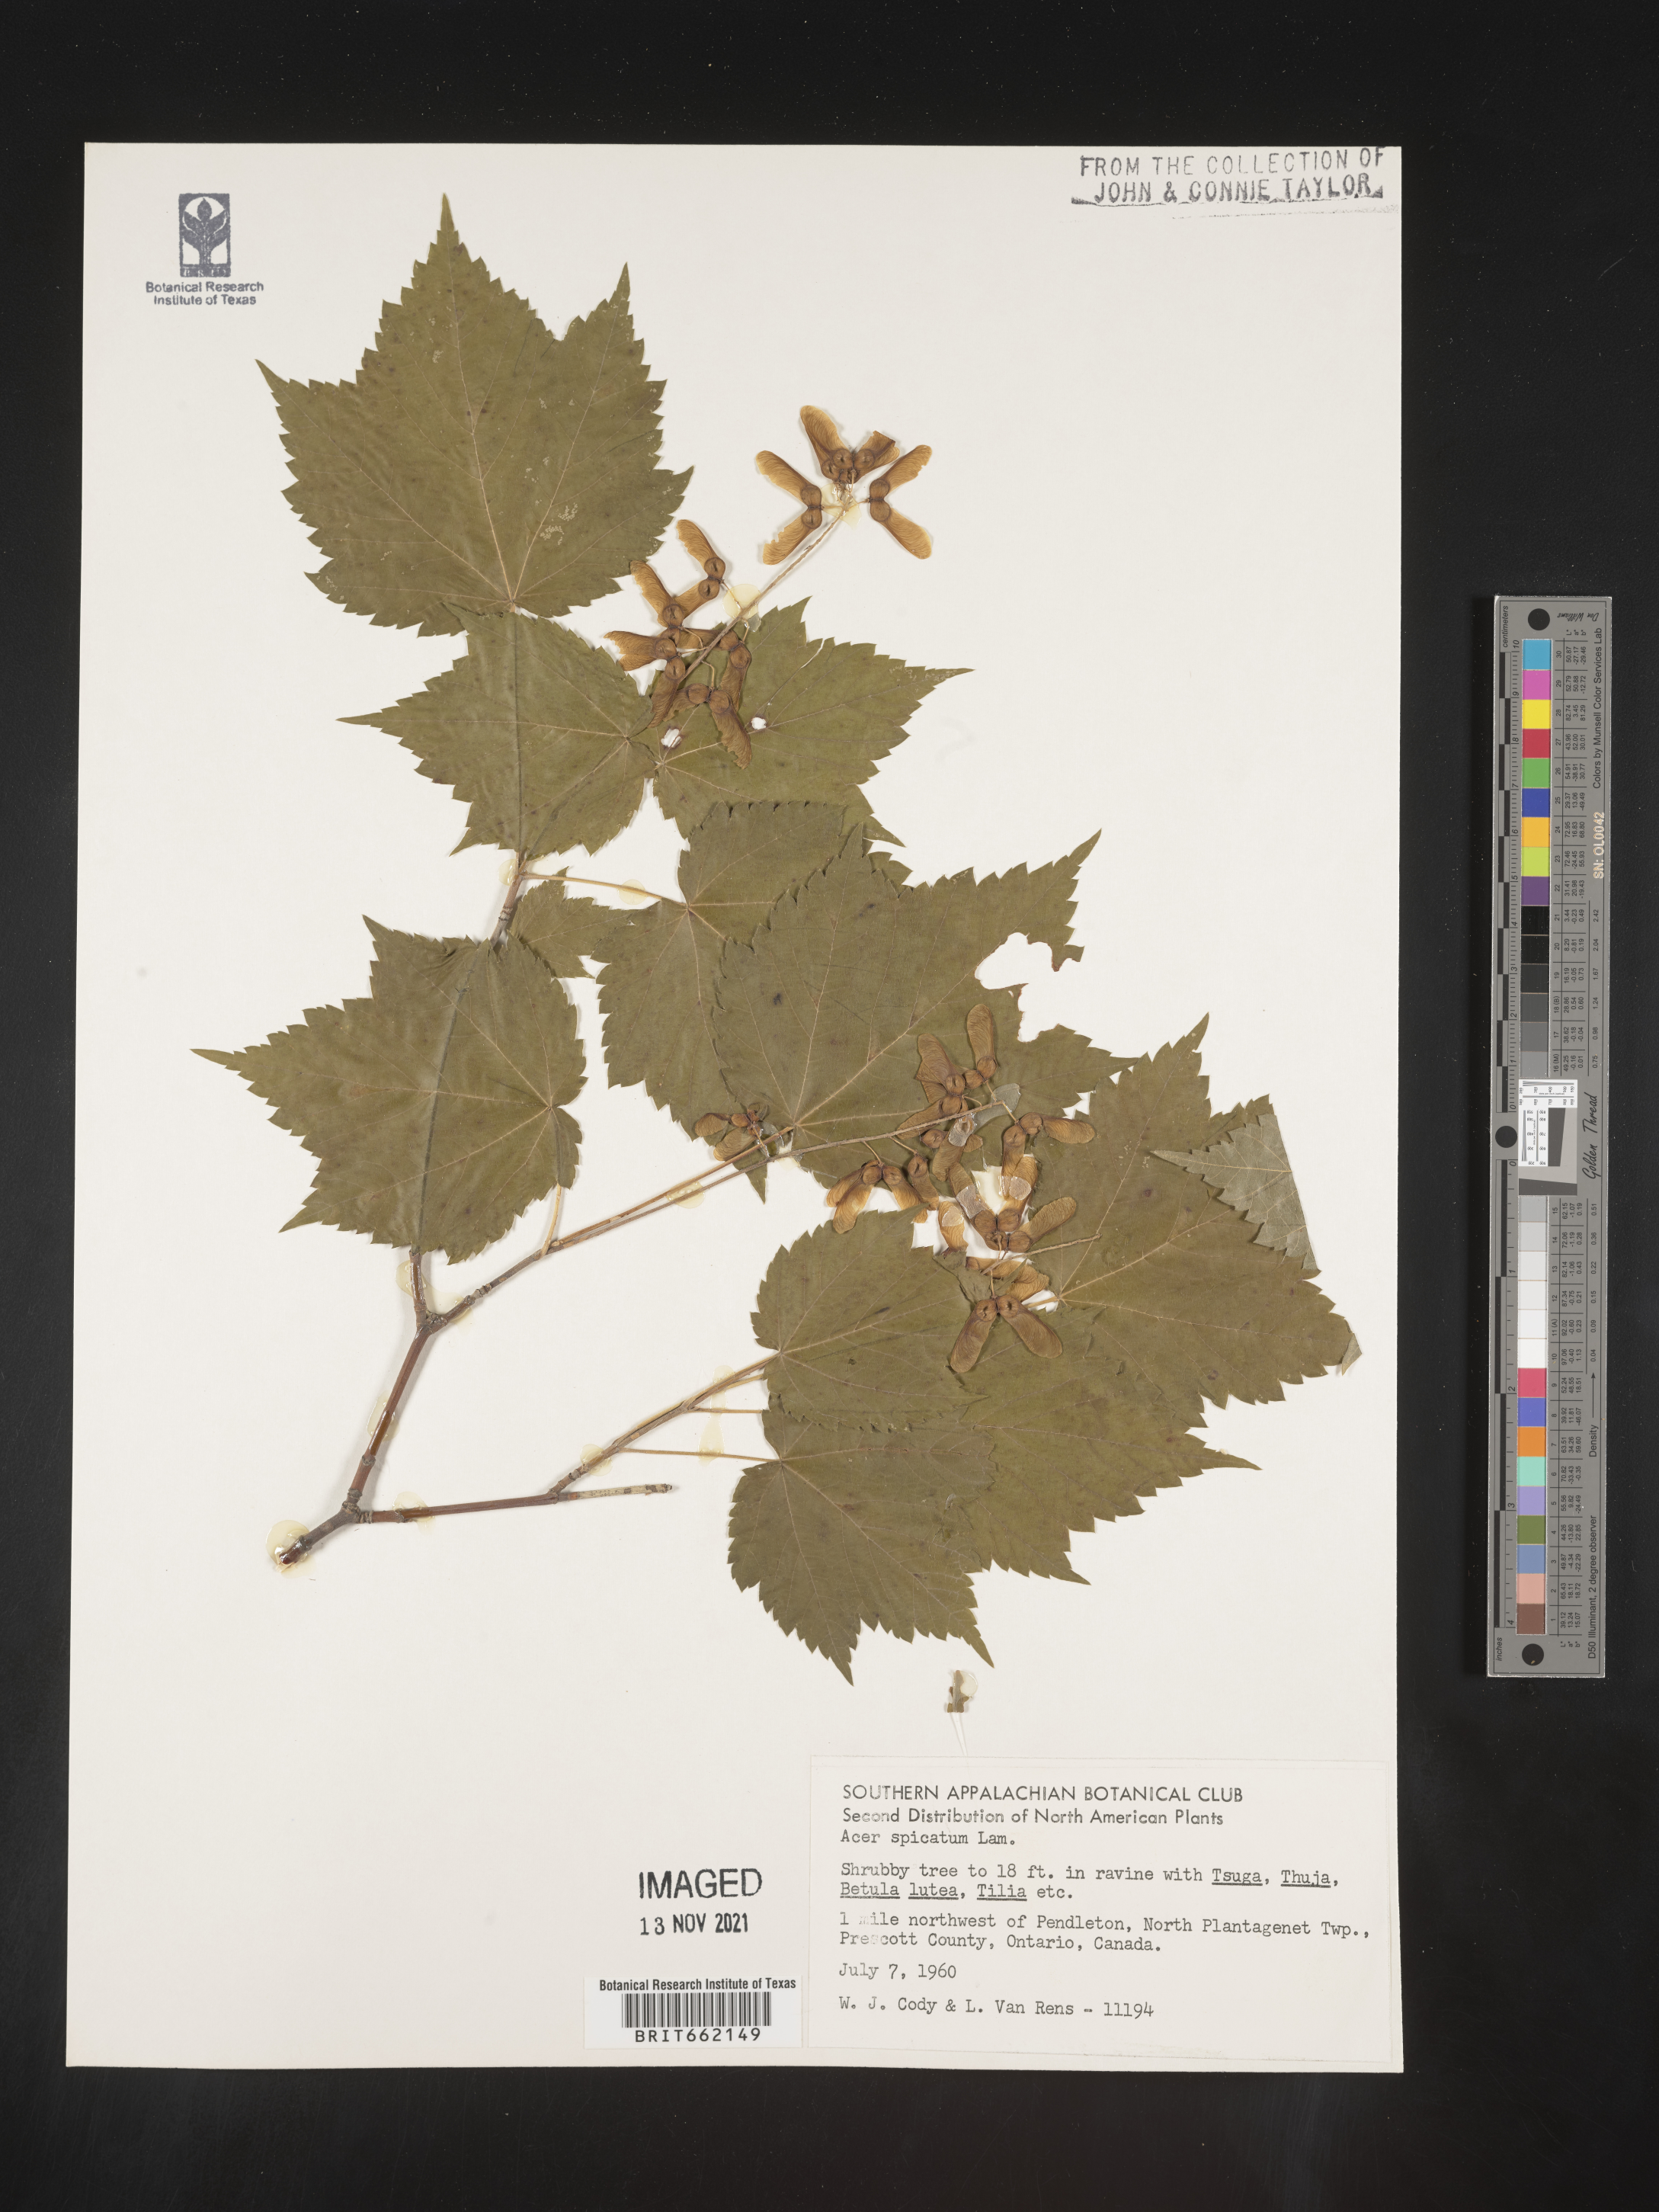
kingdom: Plantae
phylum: Tracheophyta
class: Magnoliopsida
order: Sapindales
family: Sapindaceae
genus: Acer
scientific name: Acer spicatum
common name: Mountain maple
